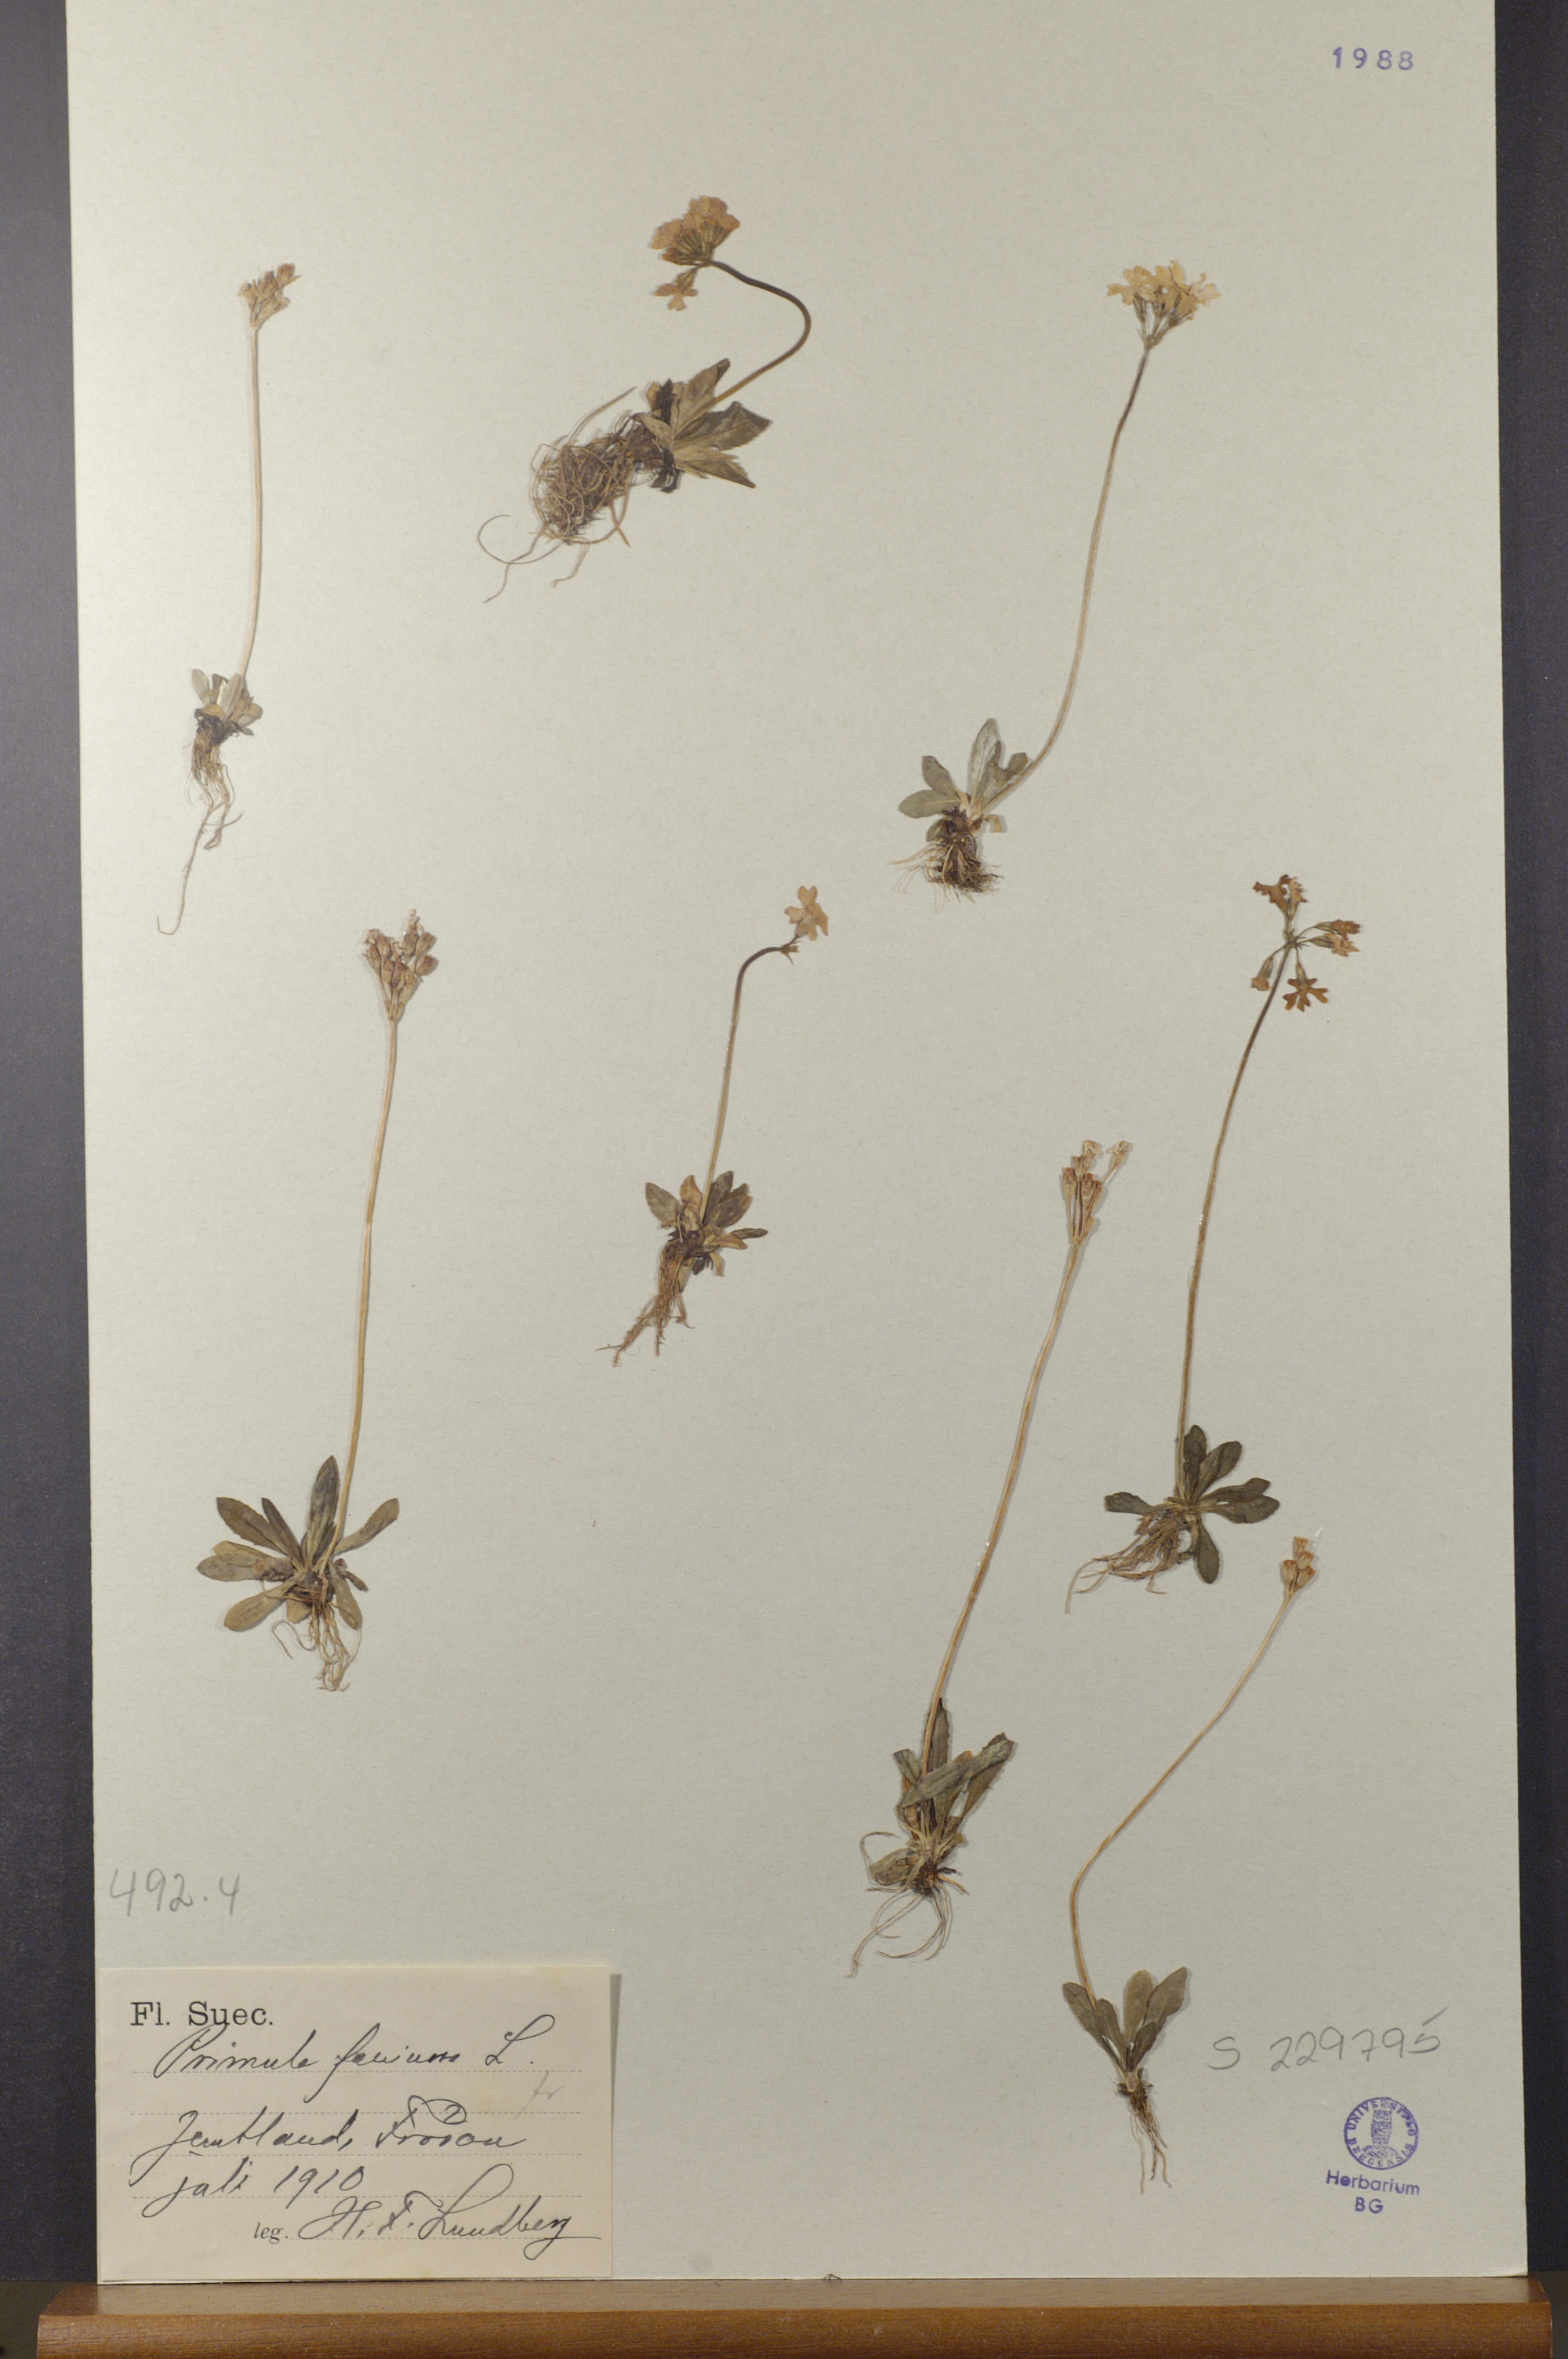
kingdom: Plantae
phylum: Tracheophyta
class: Magnoliopsida
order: Ericales
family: Primulaceae
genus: Primula
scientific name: Primula farinosa
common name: Bird's-eye primrose
